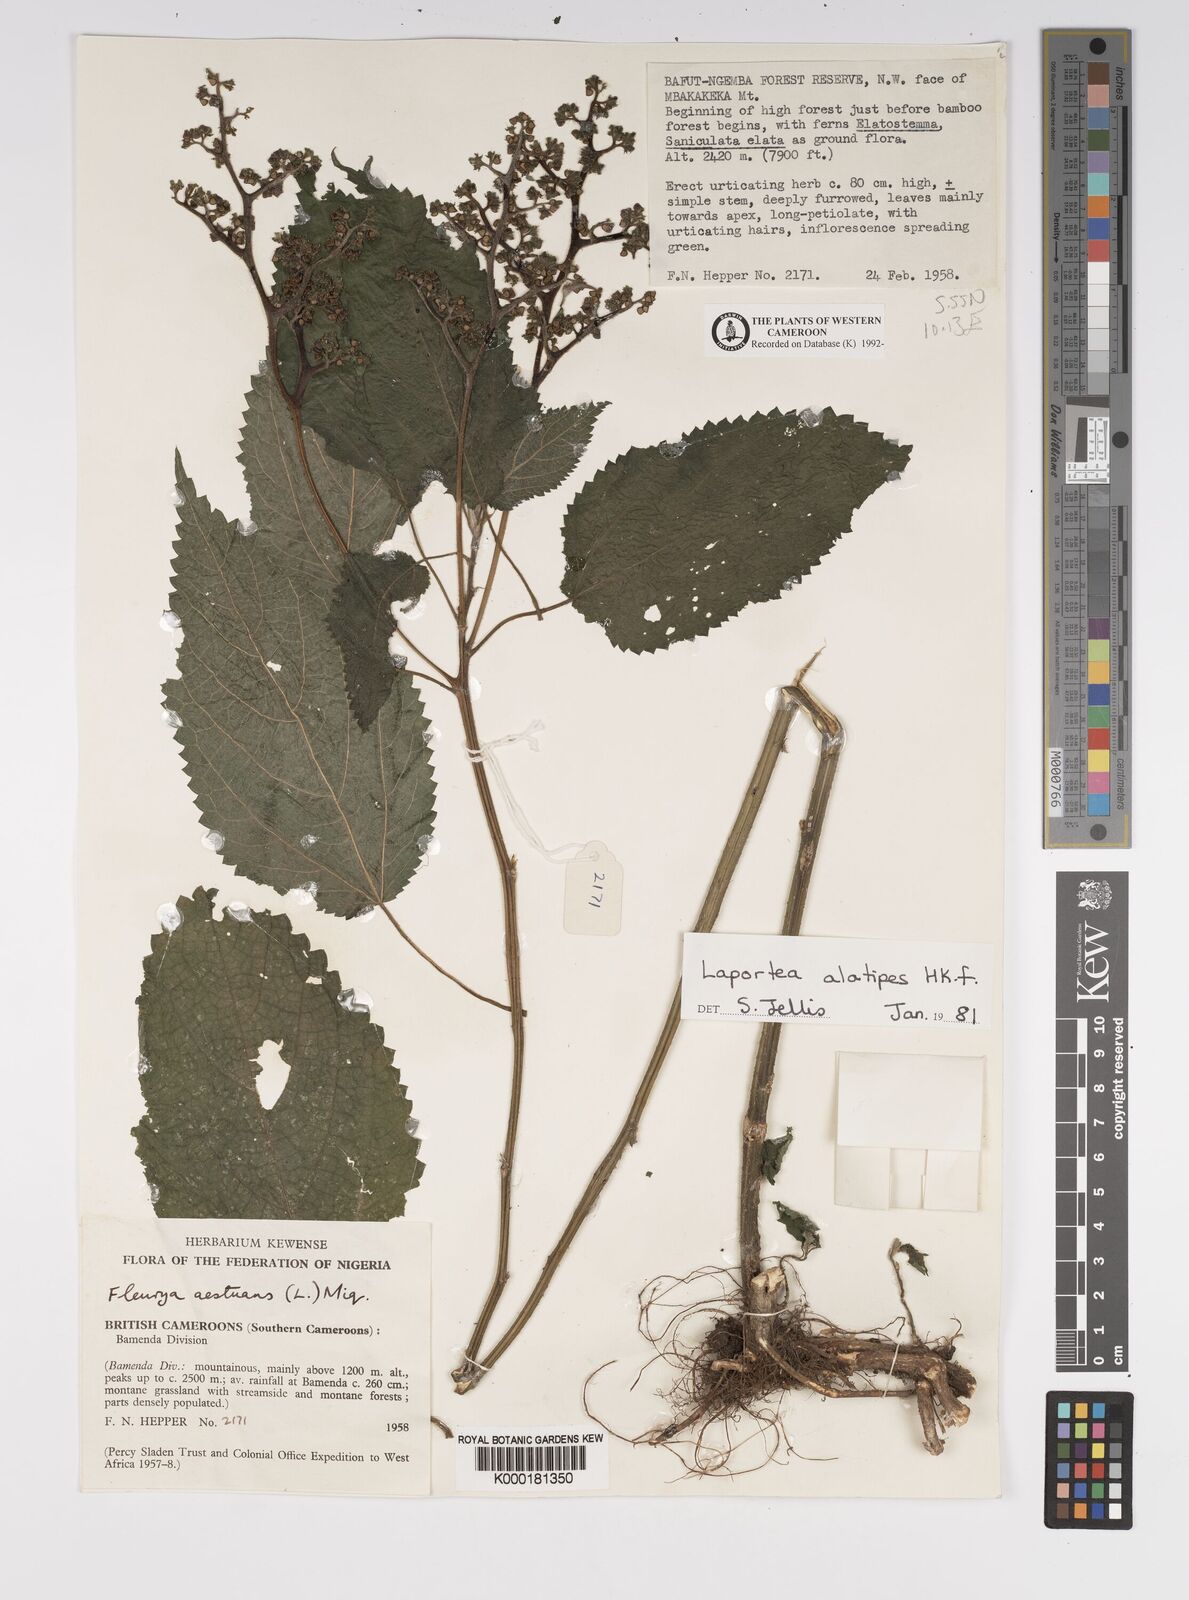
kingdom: Plantae
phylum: Tracheophyta
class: Magnoliopsida
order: Rosales
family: Urticaceae
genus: Laportea
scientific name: Laportea alatipes
